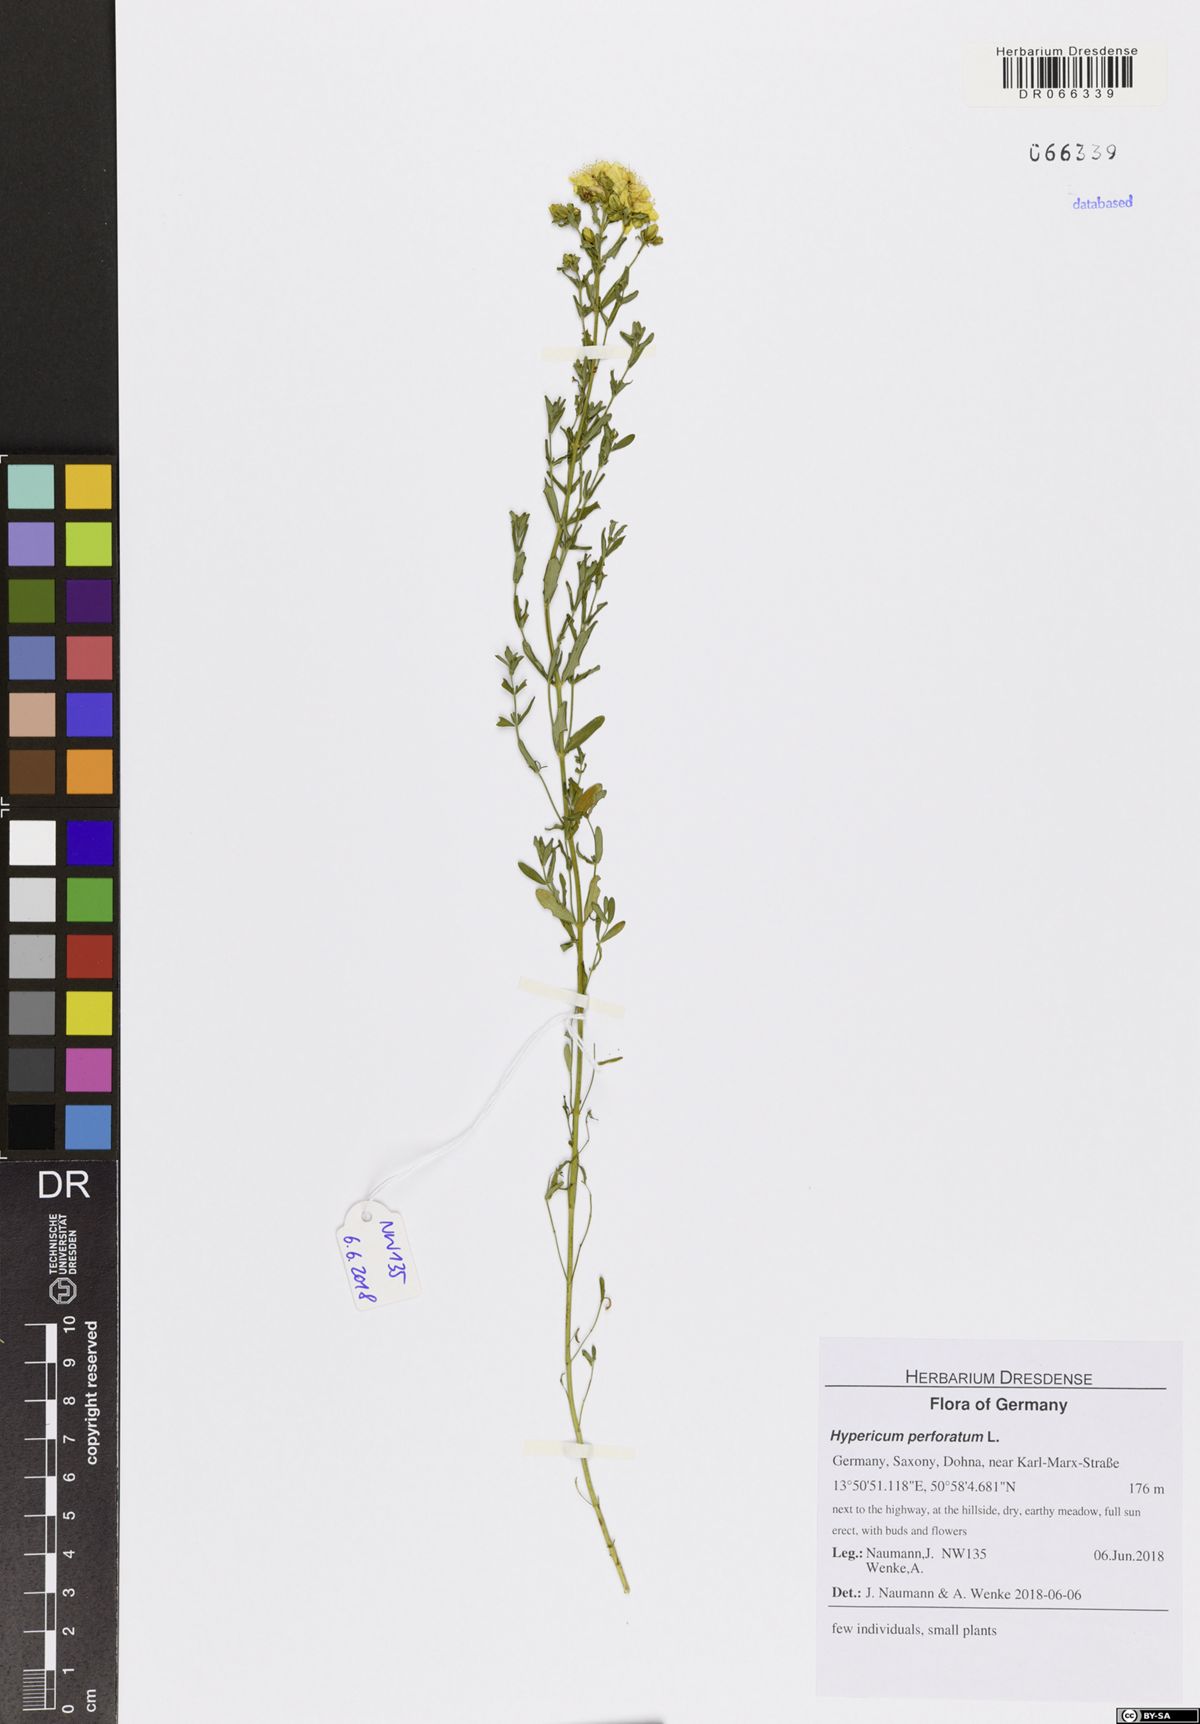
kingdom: Plantae
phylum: Tracheophyta
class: Magnoliopsida
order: Malpighiales
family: Hypericaceae
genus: Hypericum
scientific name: Hypericum perforatum
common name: Common st. johnswort
